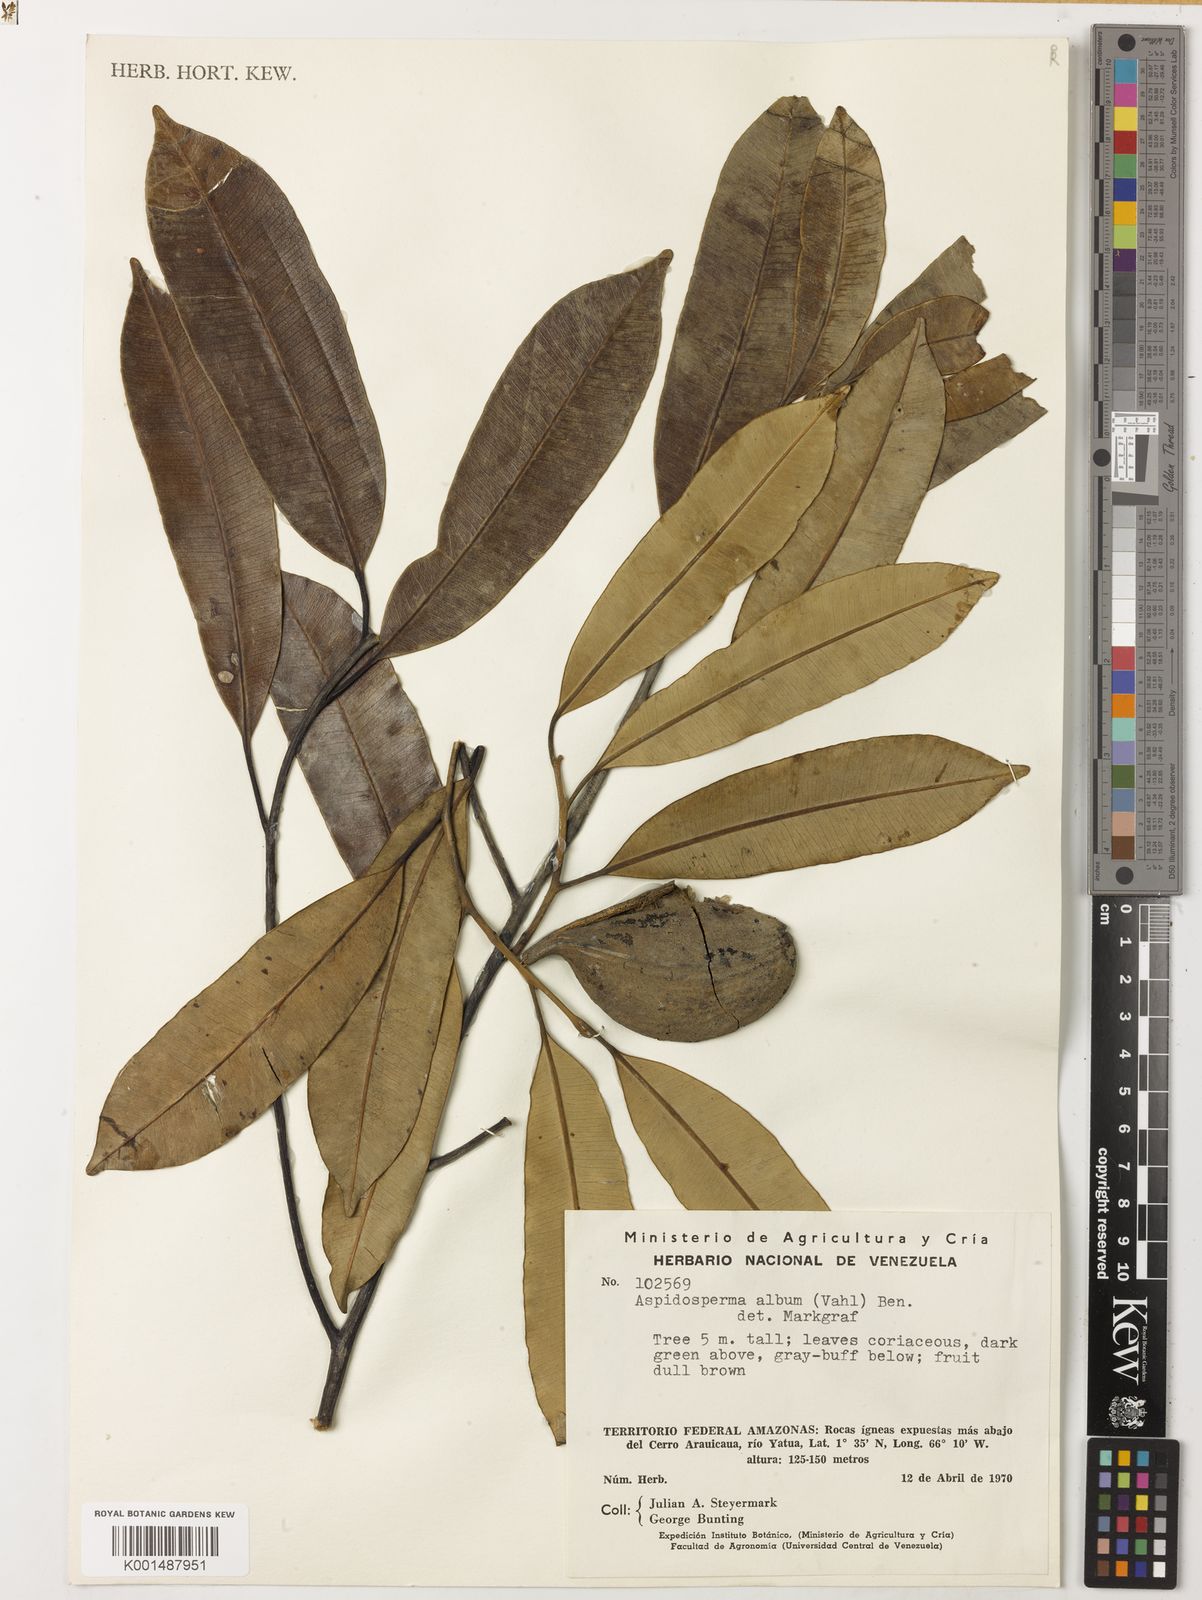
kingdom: Plantae
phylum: Tracheophyta
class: Magnoliopsida
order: Gentianales
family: Apocynaceae
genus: Aspidosperma
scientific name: Aspidosperma album
